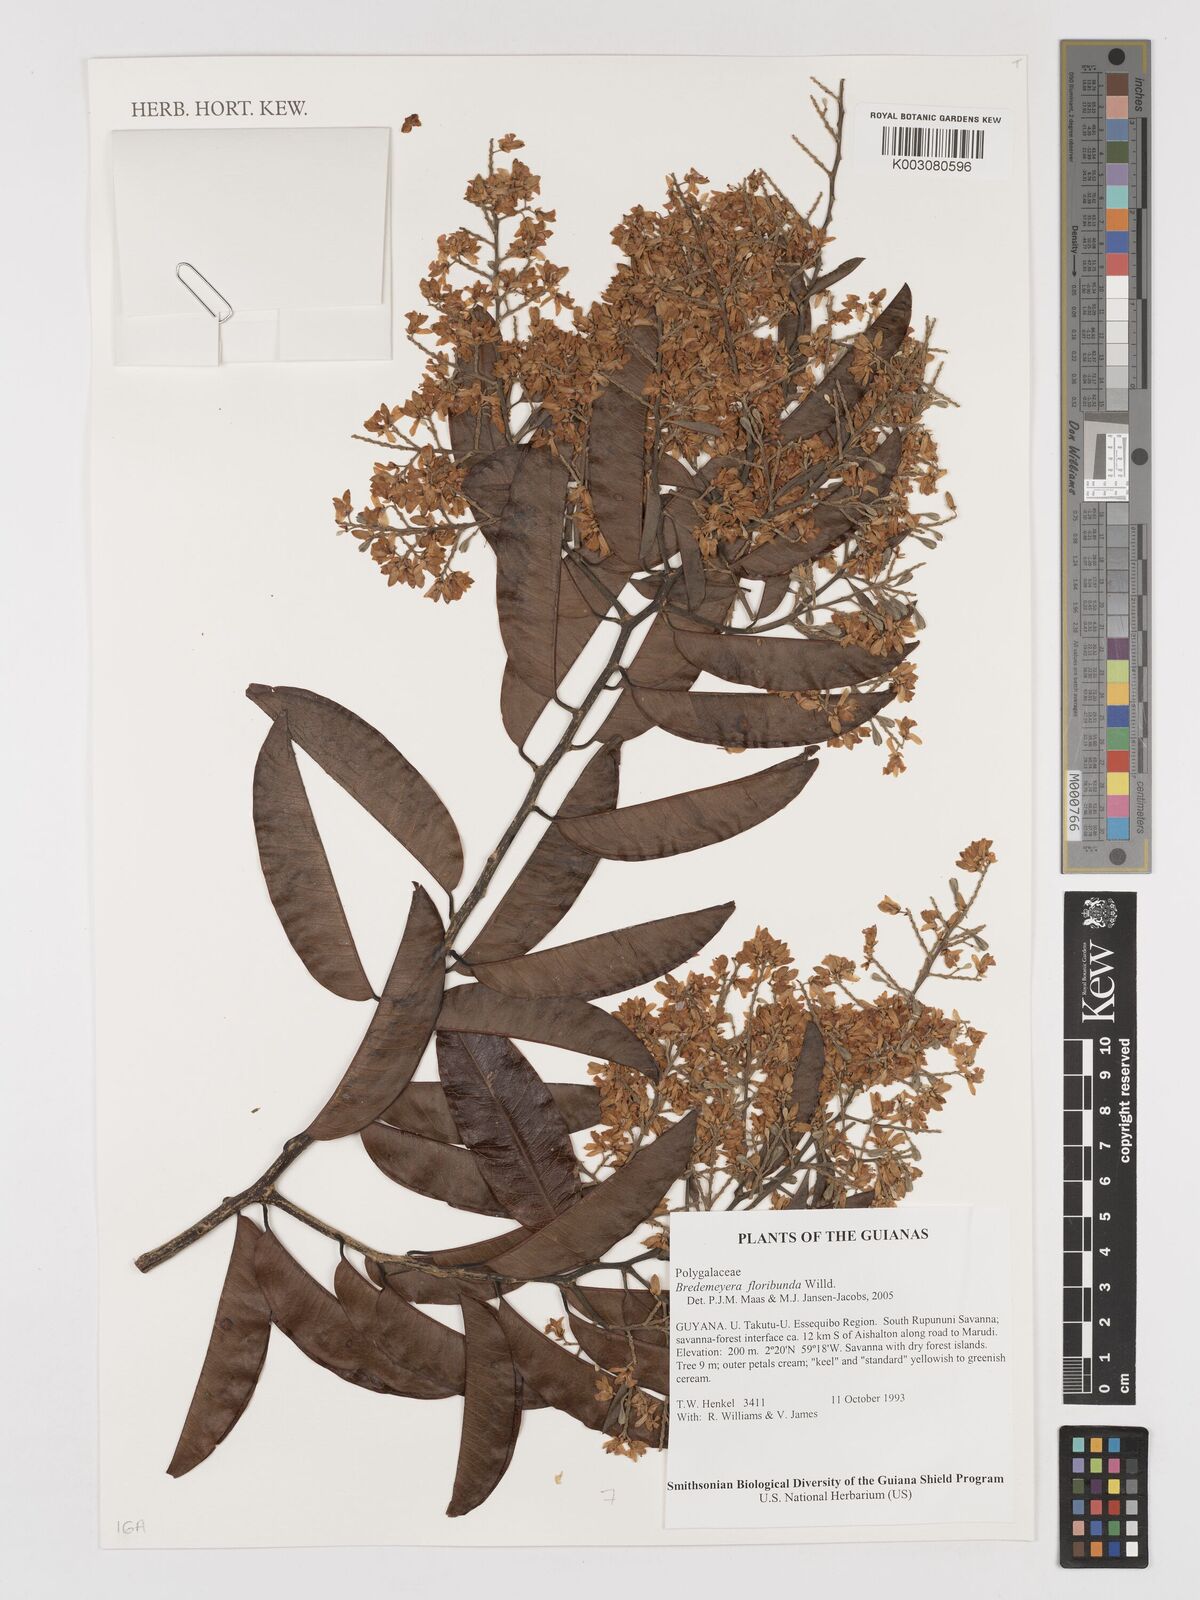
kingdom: Plantae
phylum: Tracheophyta
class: Magnoliopsida
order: Fabales
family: Polygalaceae
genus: Bredemeyera
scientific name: Bredemeyera floribunda
